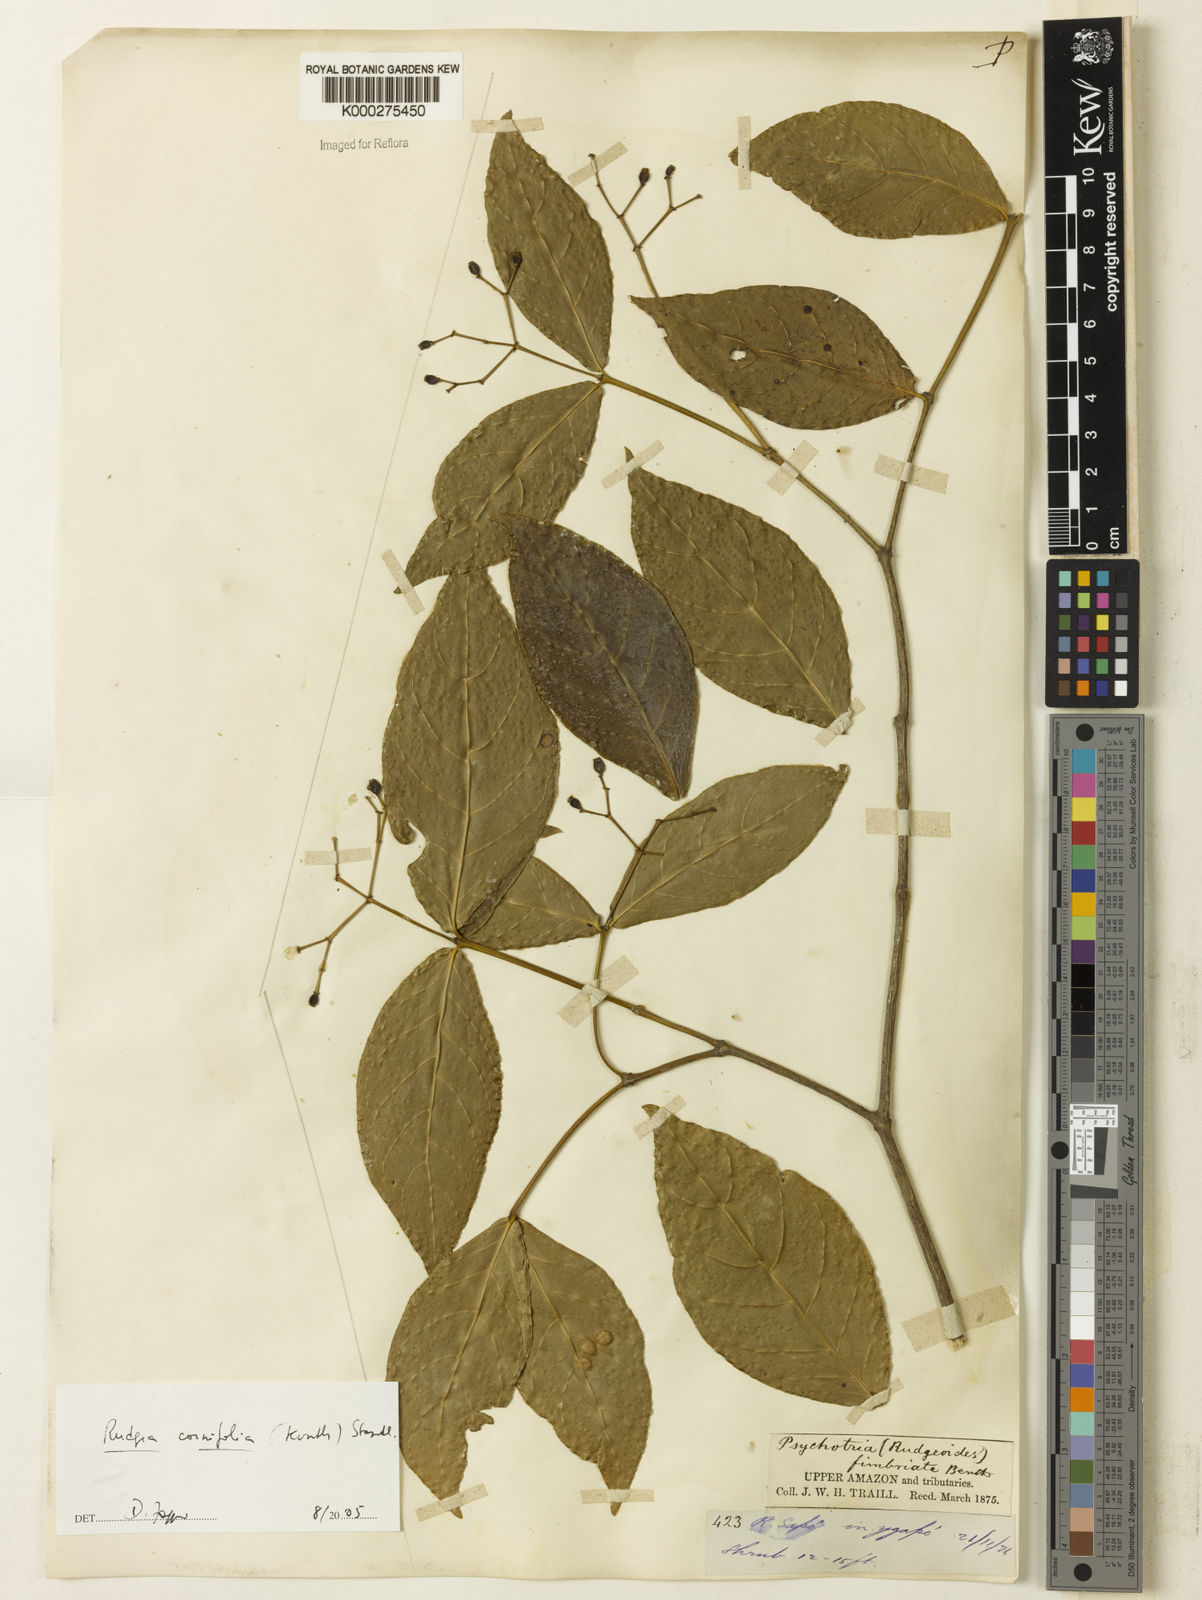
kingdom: Plantae
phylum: Tracheophyta
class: Magnoliopsida
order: Gentianales
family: Rubiaceae
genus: Rudgea
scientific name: Rudgea cornifolia
